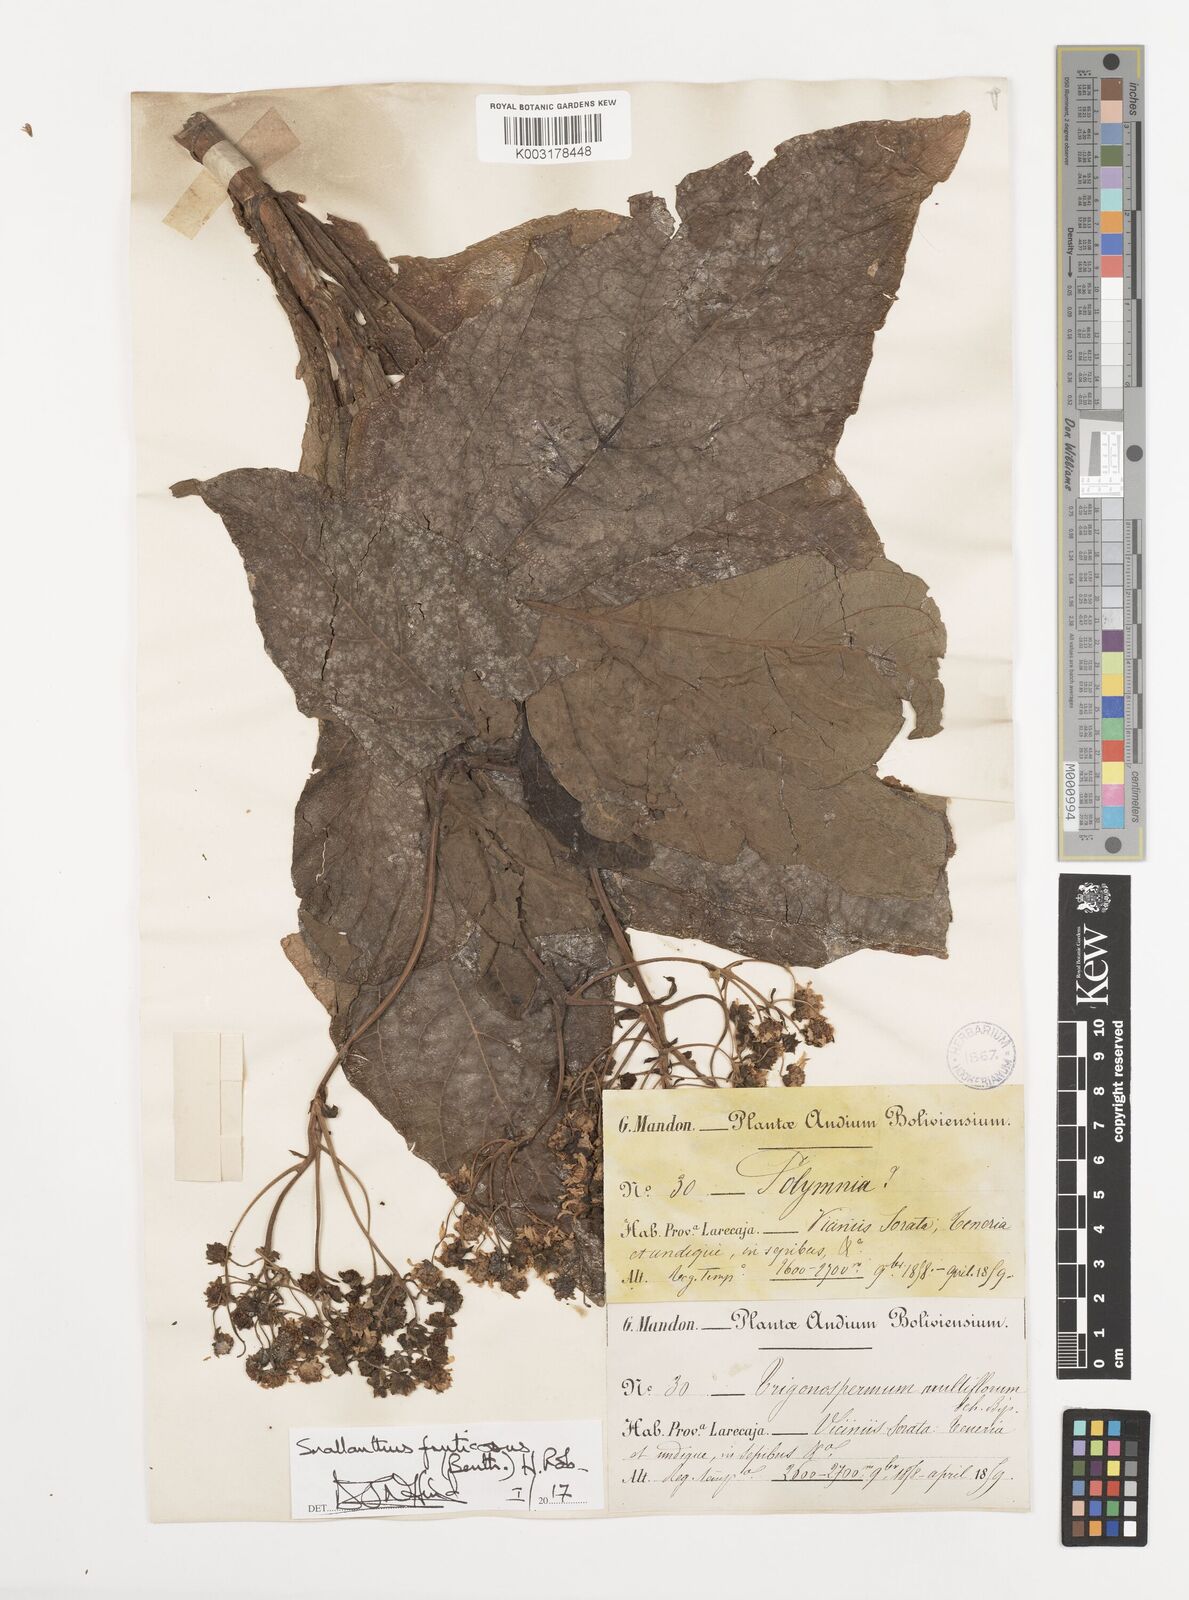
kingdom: Plantae
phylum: Tracheophyta
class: Magnoliopsida
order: Asterales
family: Asteraceae
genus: Smallanthus
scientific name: Smallanthus glabratus
